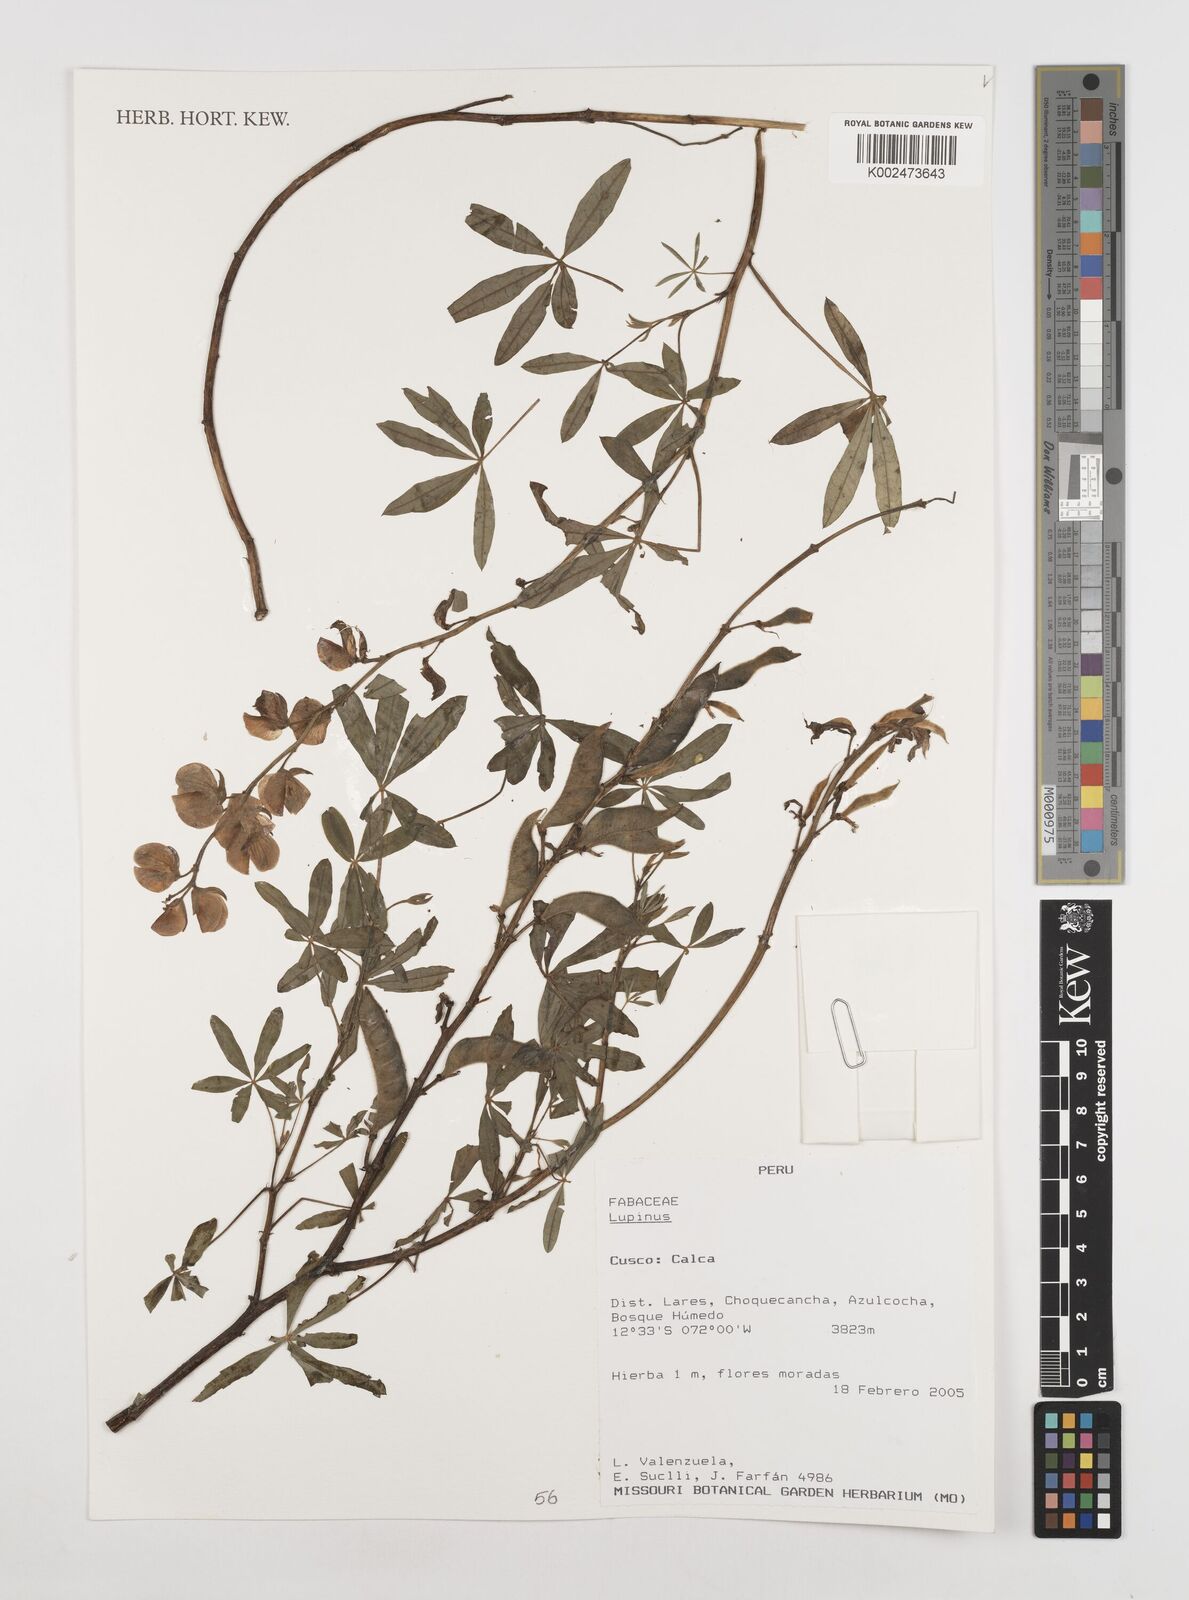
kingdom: Plantae
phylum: Tracheophyta
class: Magnoliopsida
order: Fabales
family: Fabaceae
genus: Lupinus
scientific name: Lupinus
